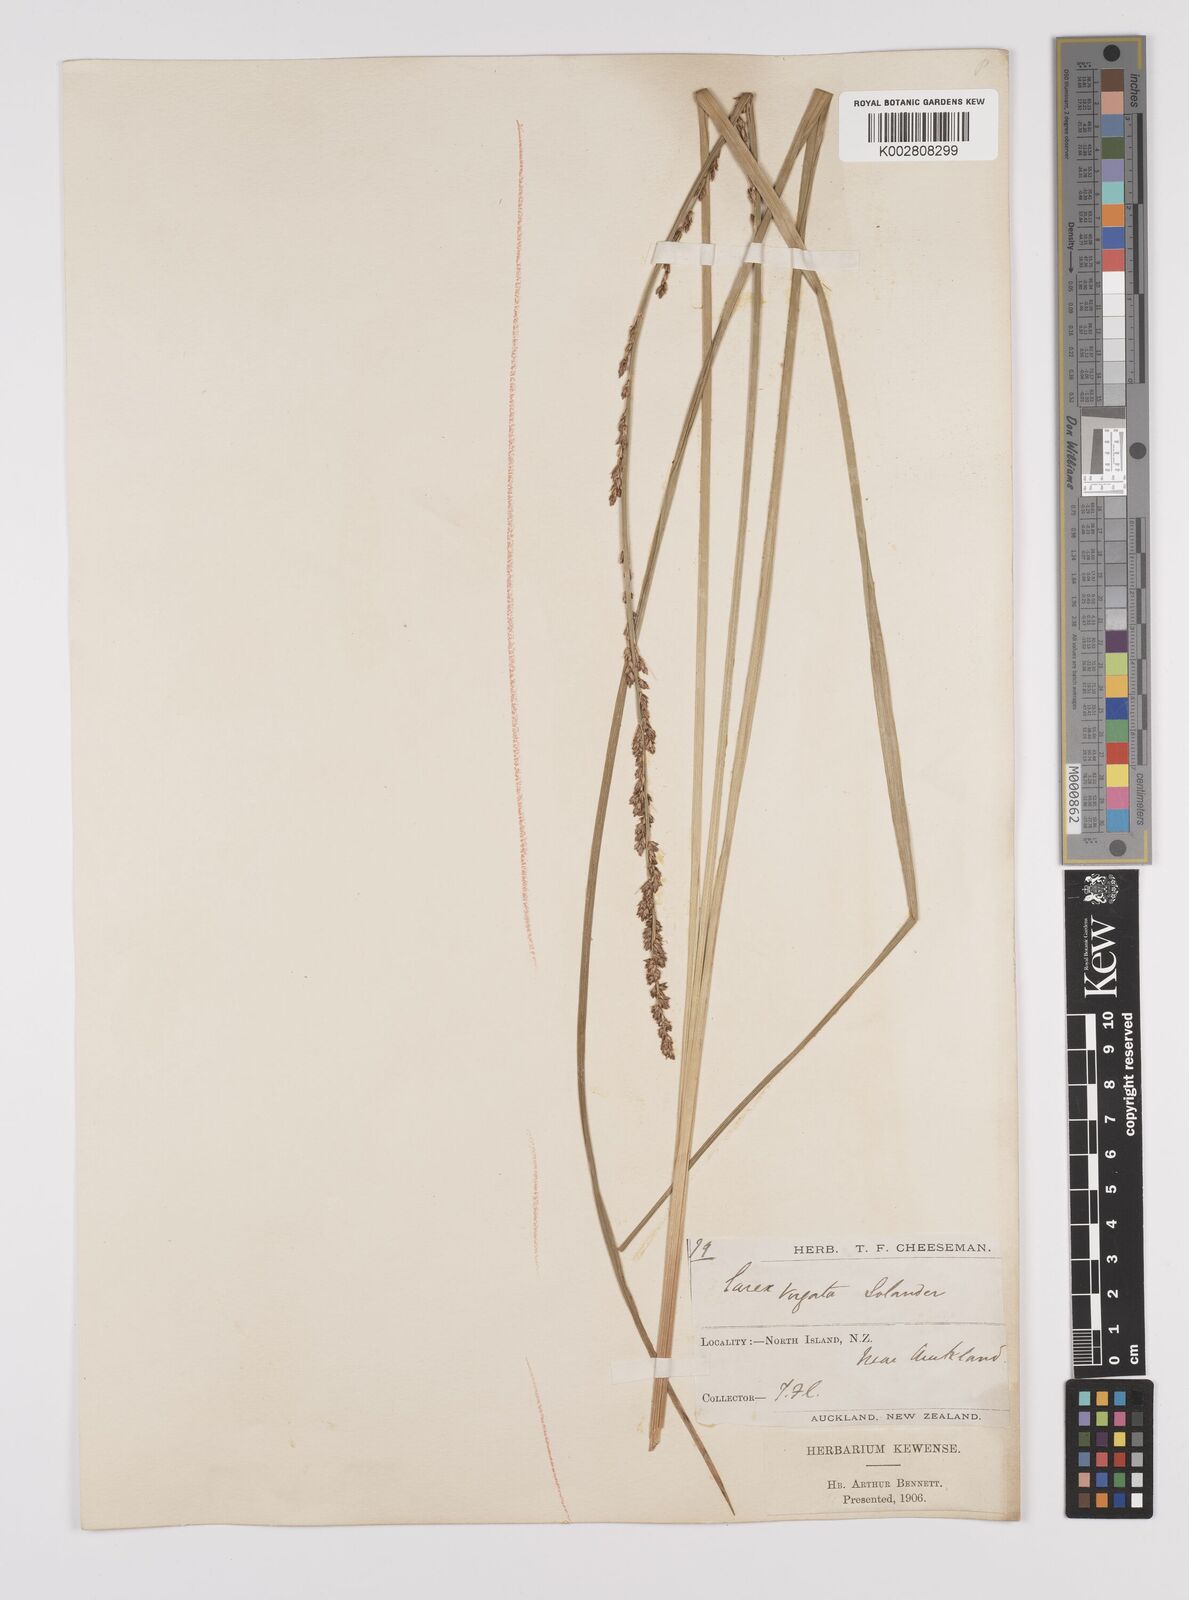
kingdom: Plantae
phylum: Tracheophyta
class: Liliopsida
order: Poales
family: Cyperaceae
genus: Carex
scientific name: Carex appressa
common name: Tussock sedge
